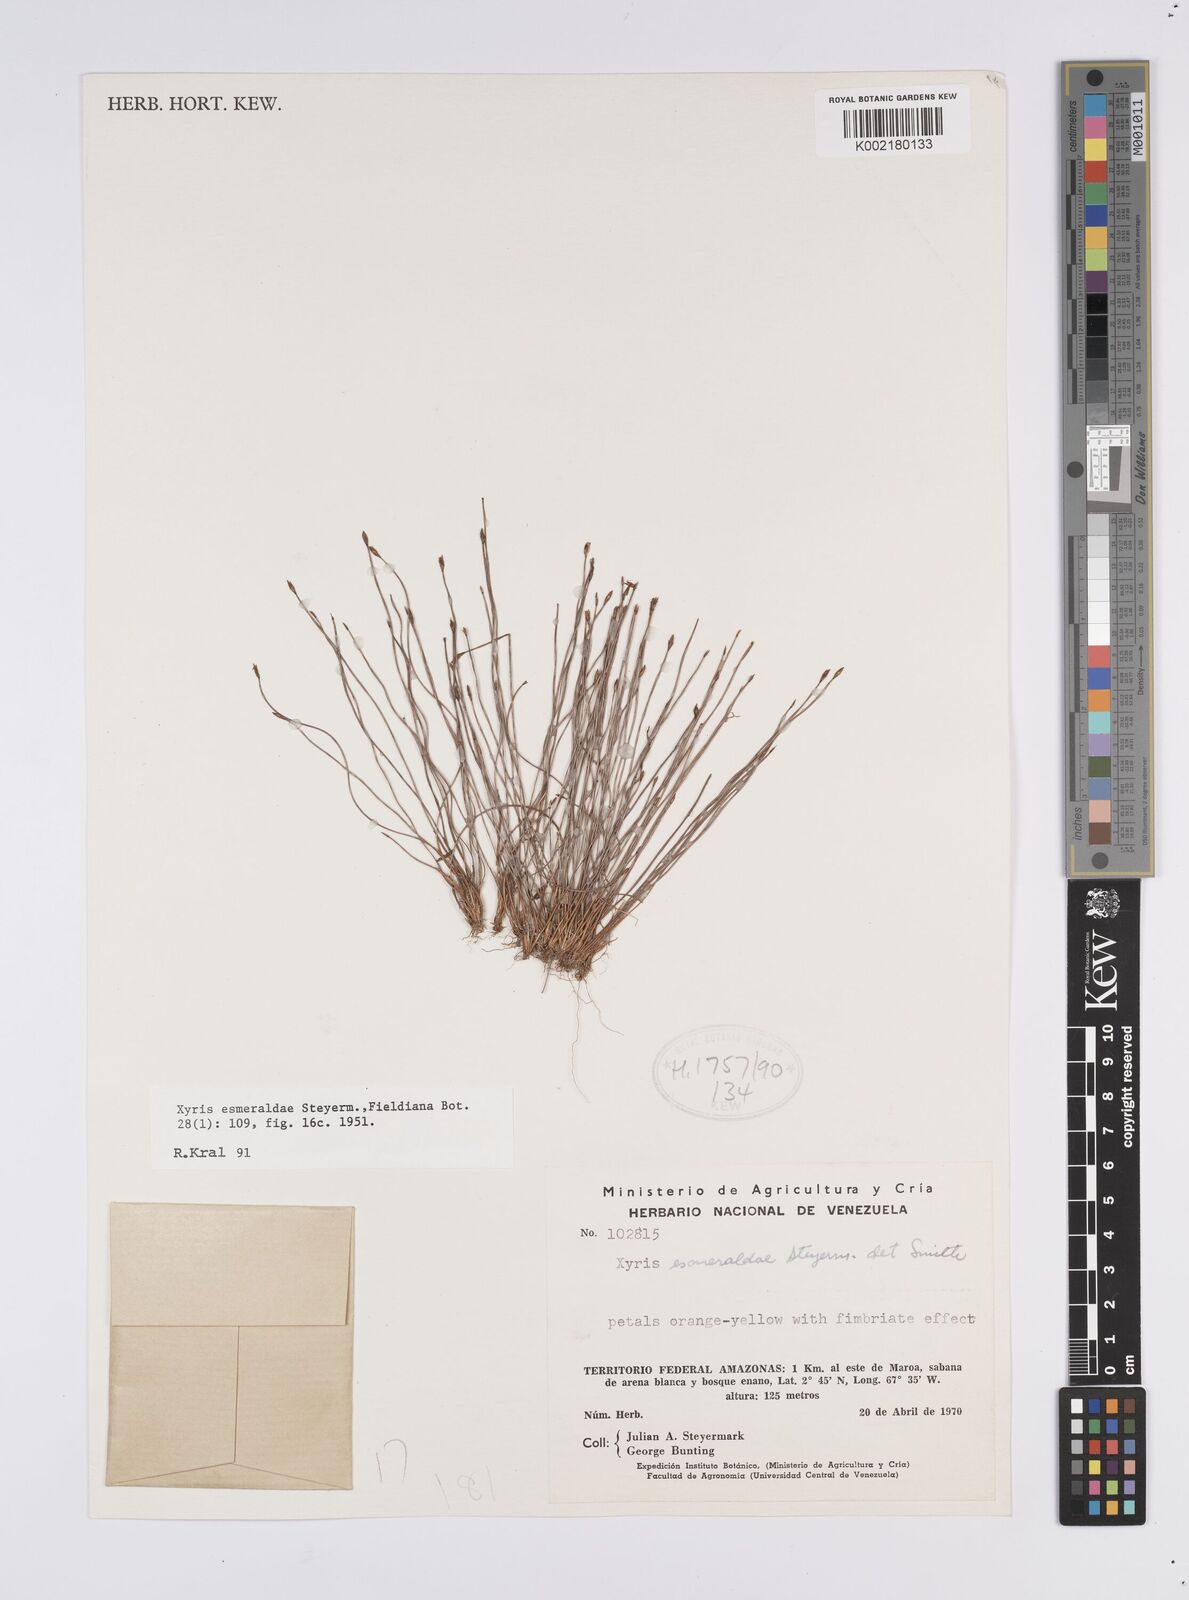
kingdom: Plantae
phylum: Tracheophyta
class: Liliopsida
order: Poales
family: Xyridaceae
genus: Xyris
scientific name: Xyris esmeraldae
